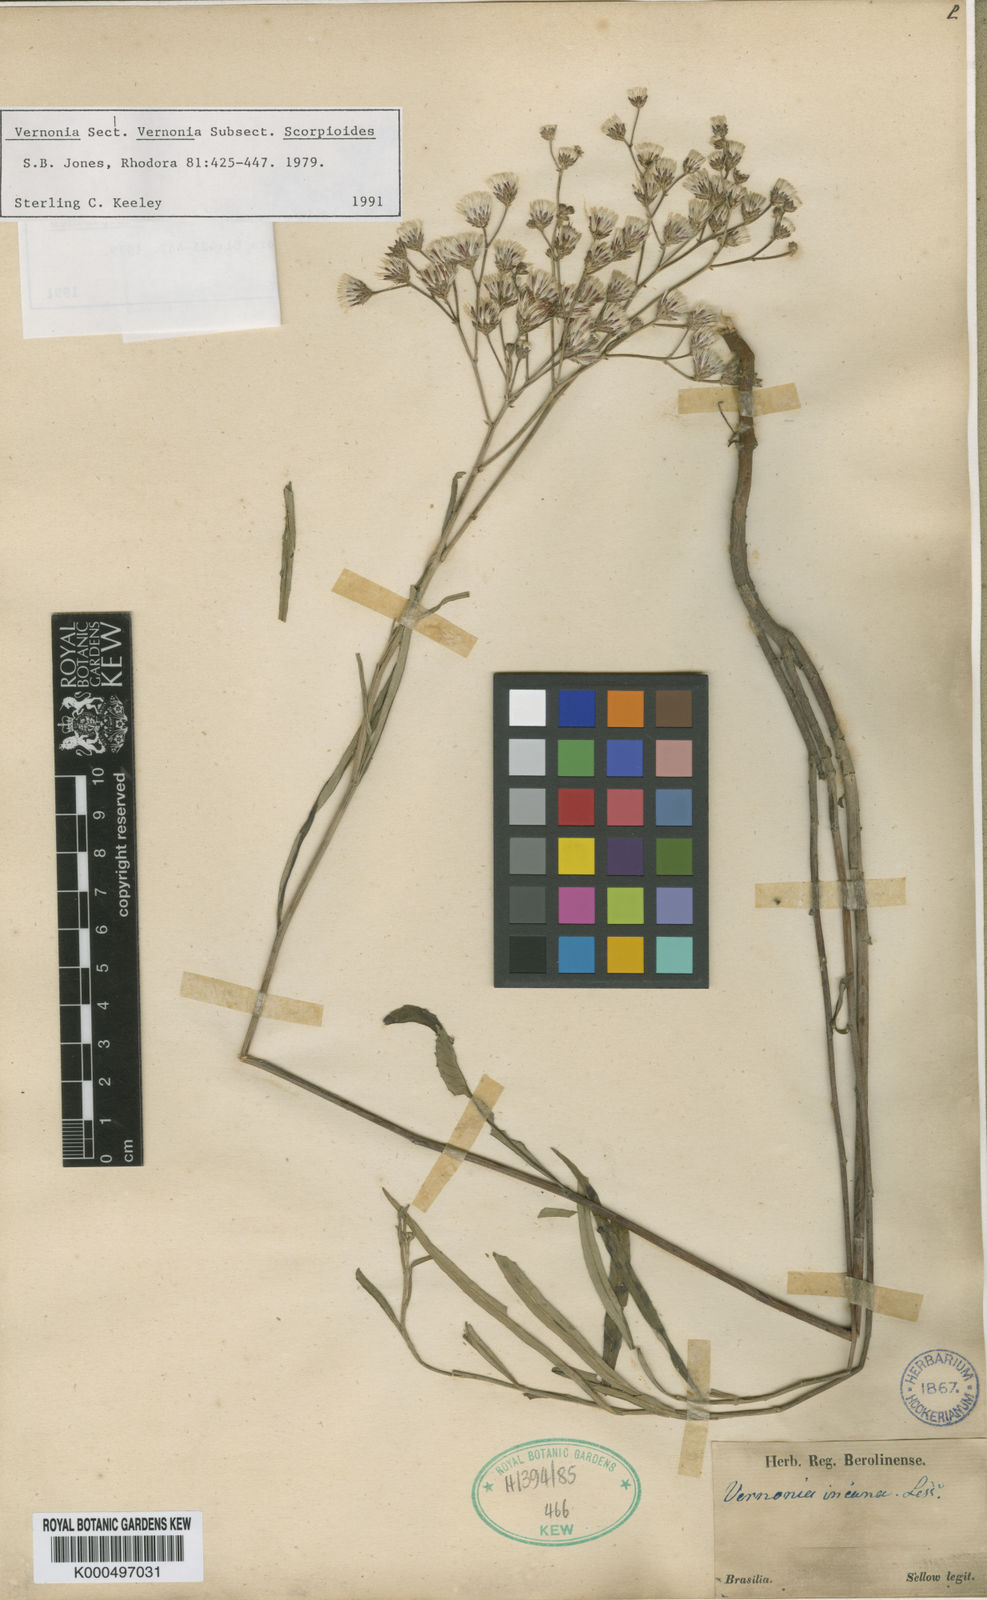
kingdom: Plantae
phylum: Tracheophyta
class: Magnoliopsida
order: Asterales
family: Asteraceae
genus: Vernonia
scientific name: Vernonia incana
